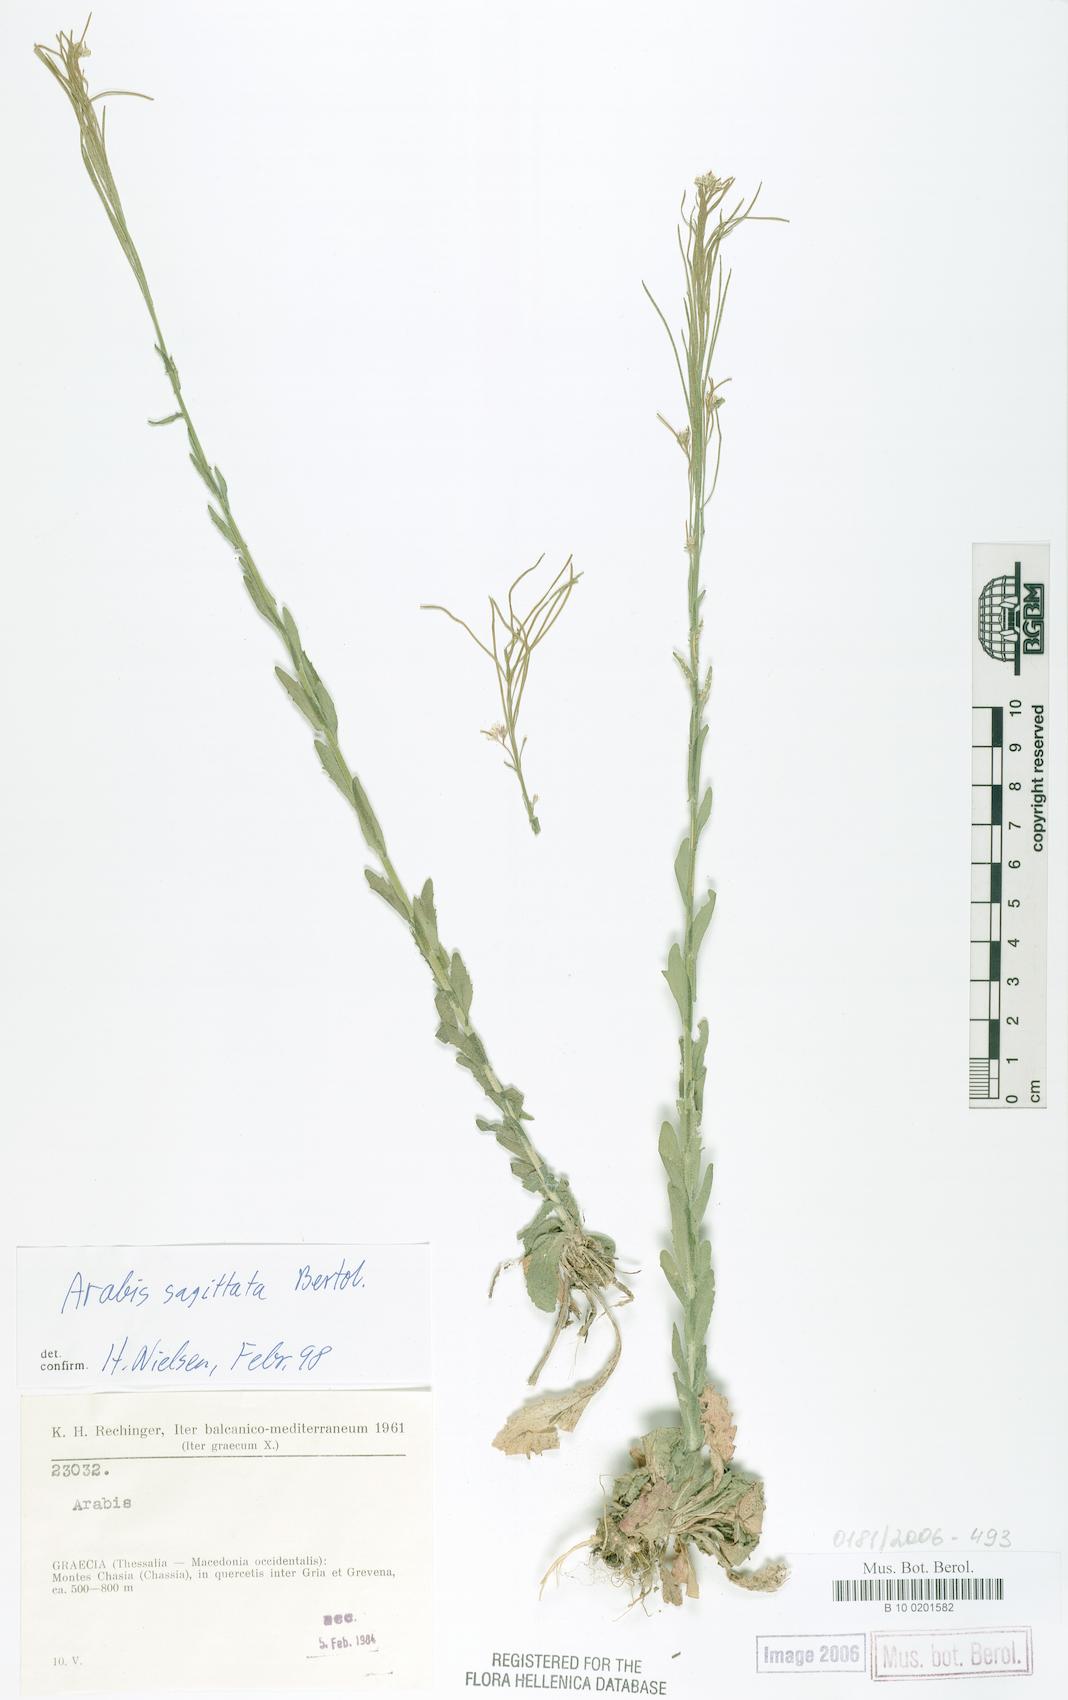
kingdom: Plantae
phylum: Tracheophyta
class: Magnoliopsida
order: Brassicales
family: Brassicaceae
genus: Arabis
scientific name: Arabis sagittata
